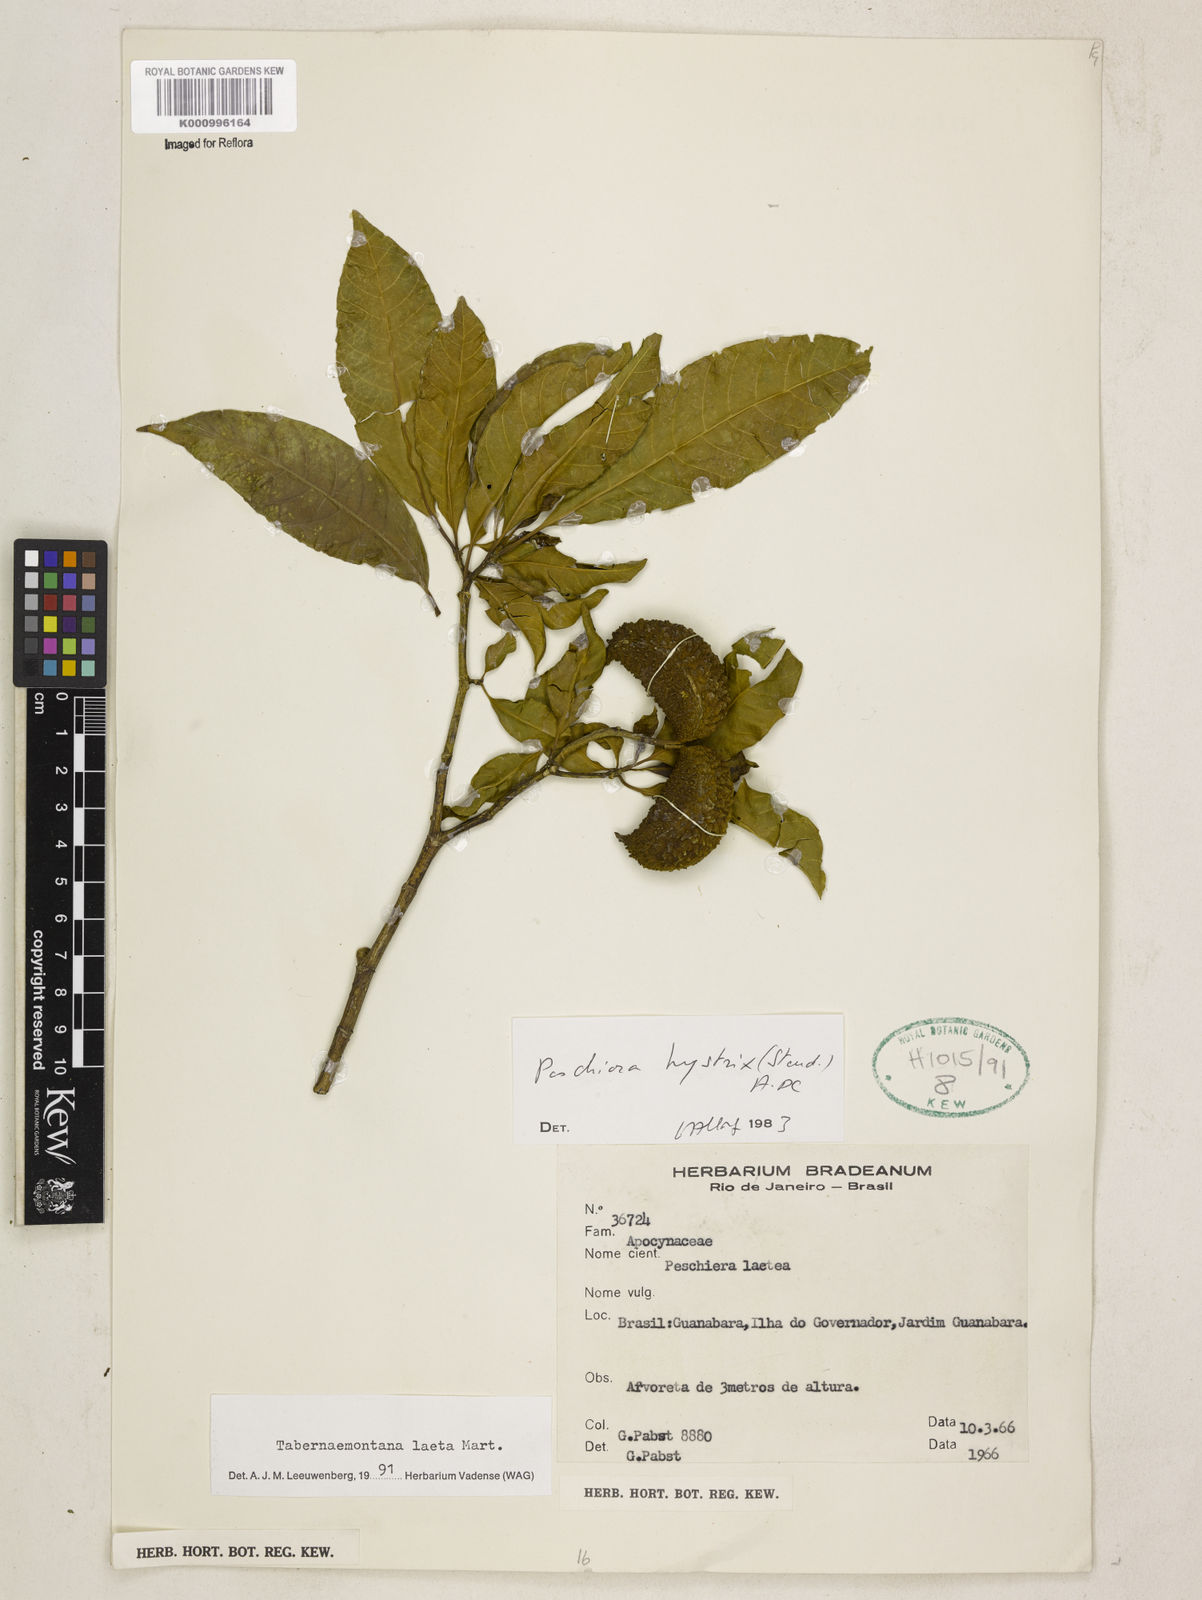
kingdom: Plantae
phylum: Tracheophyta
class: Magnoliopsida
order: Gentianales
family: Apocynaceae
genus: Tabernaemontana
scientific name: Tabernaemontana laeta
